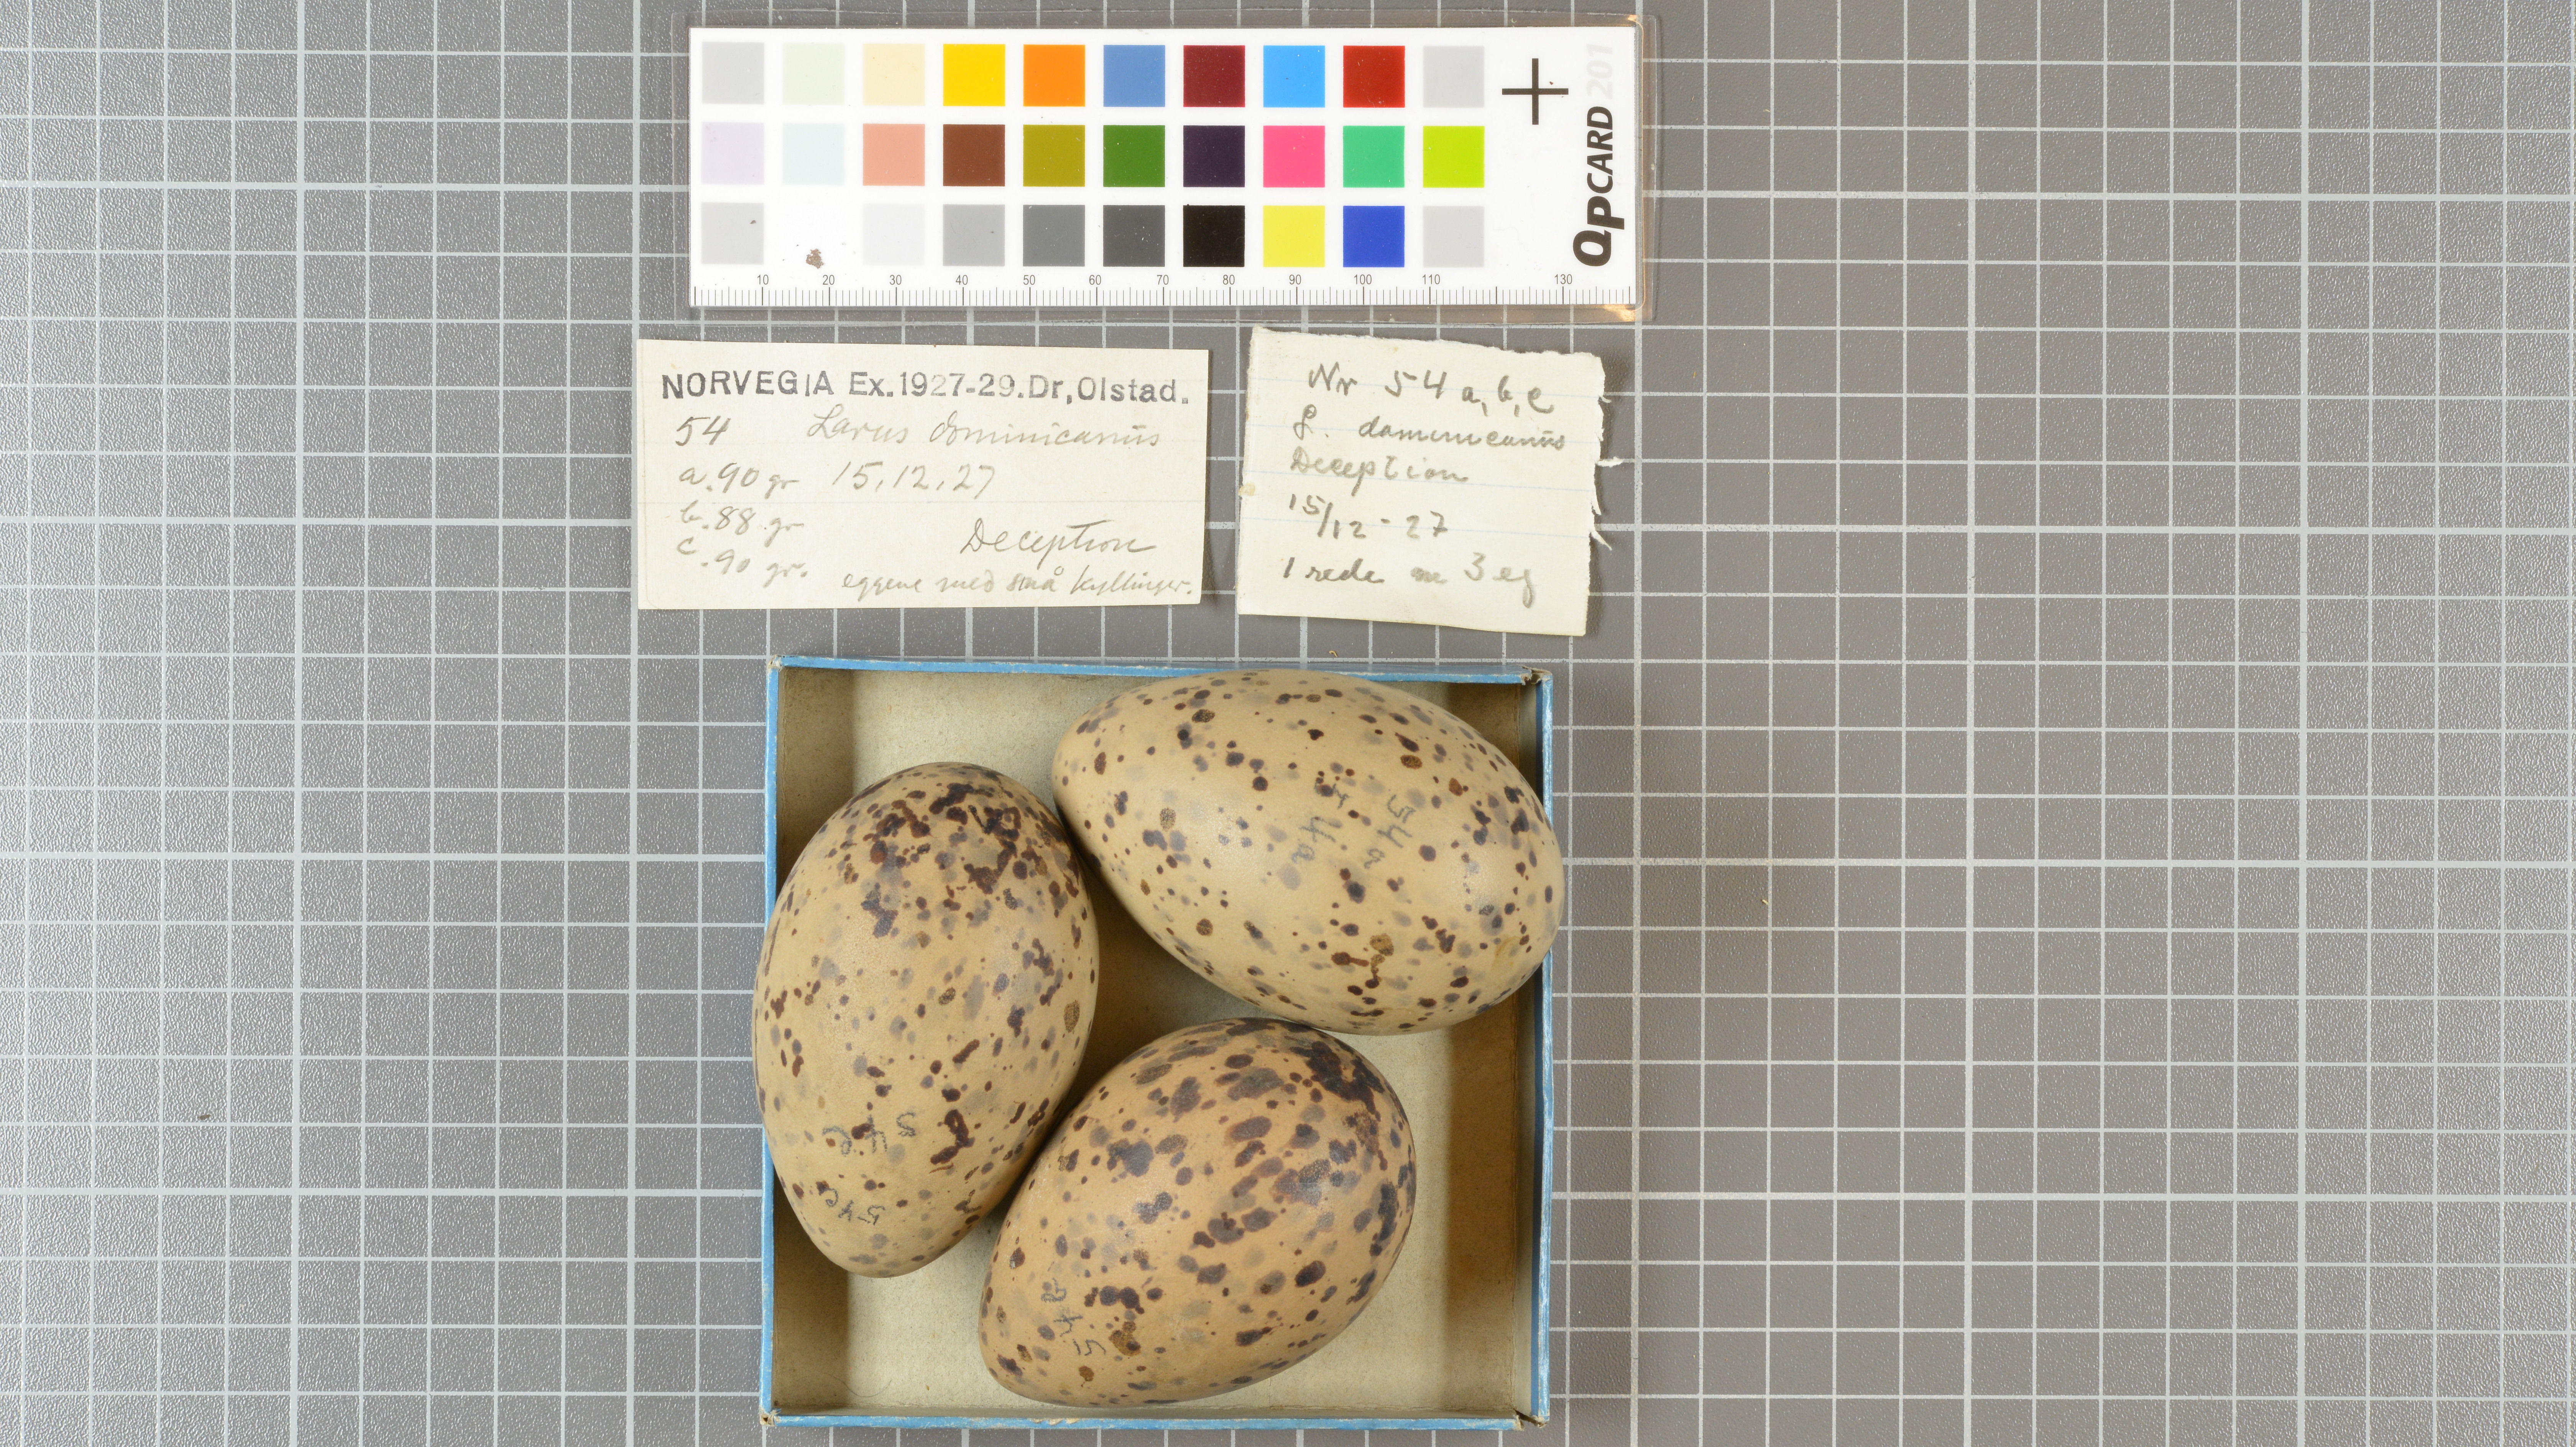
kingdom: Animalia
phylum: Chordata
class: Aves
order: Charadriiformes
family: Laridae
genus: Larus
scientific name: Larus dominicanus
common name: Kelp gull
